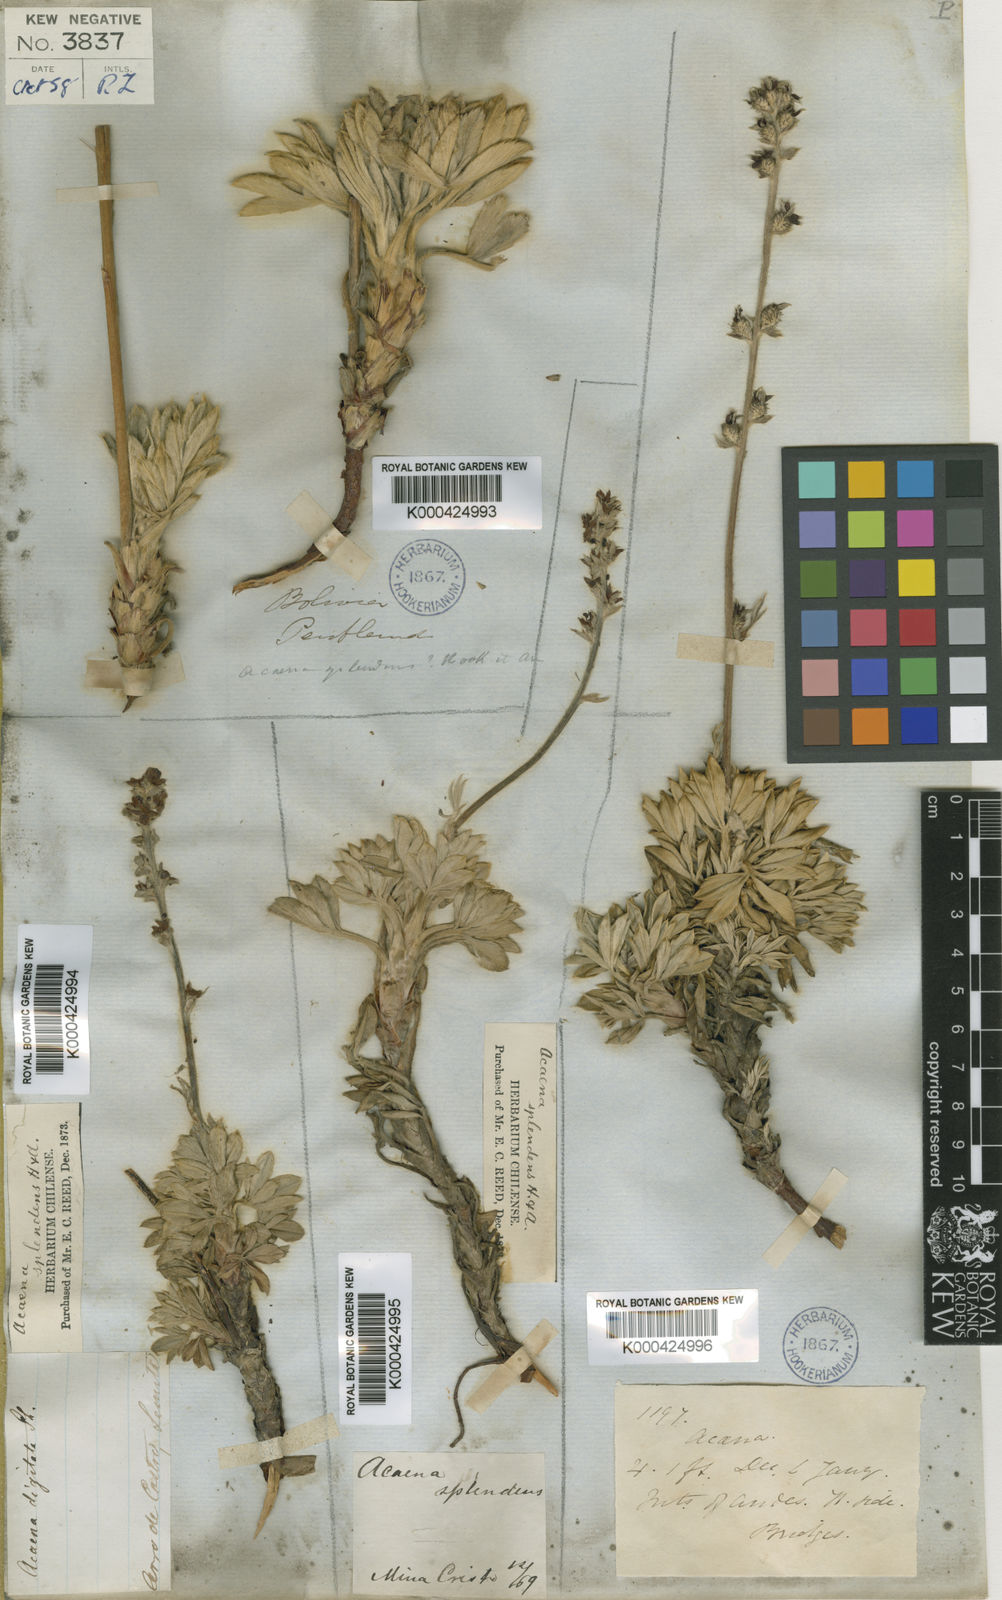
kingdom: Plantae
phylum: Tracheophyta
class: Magnoliopsida
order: Rosales
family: Rosaceae
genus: Acaena
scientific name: Acaena
